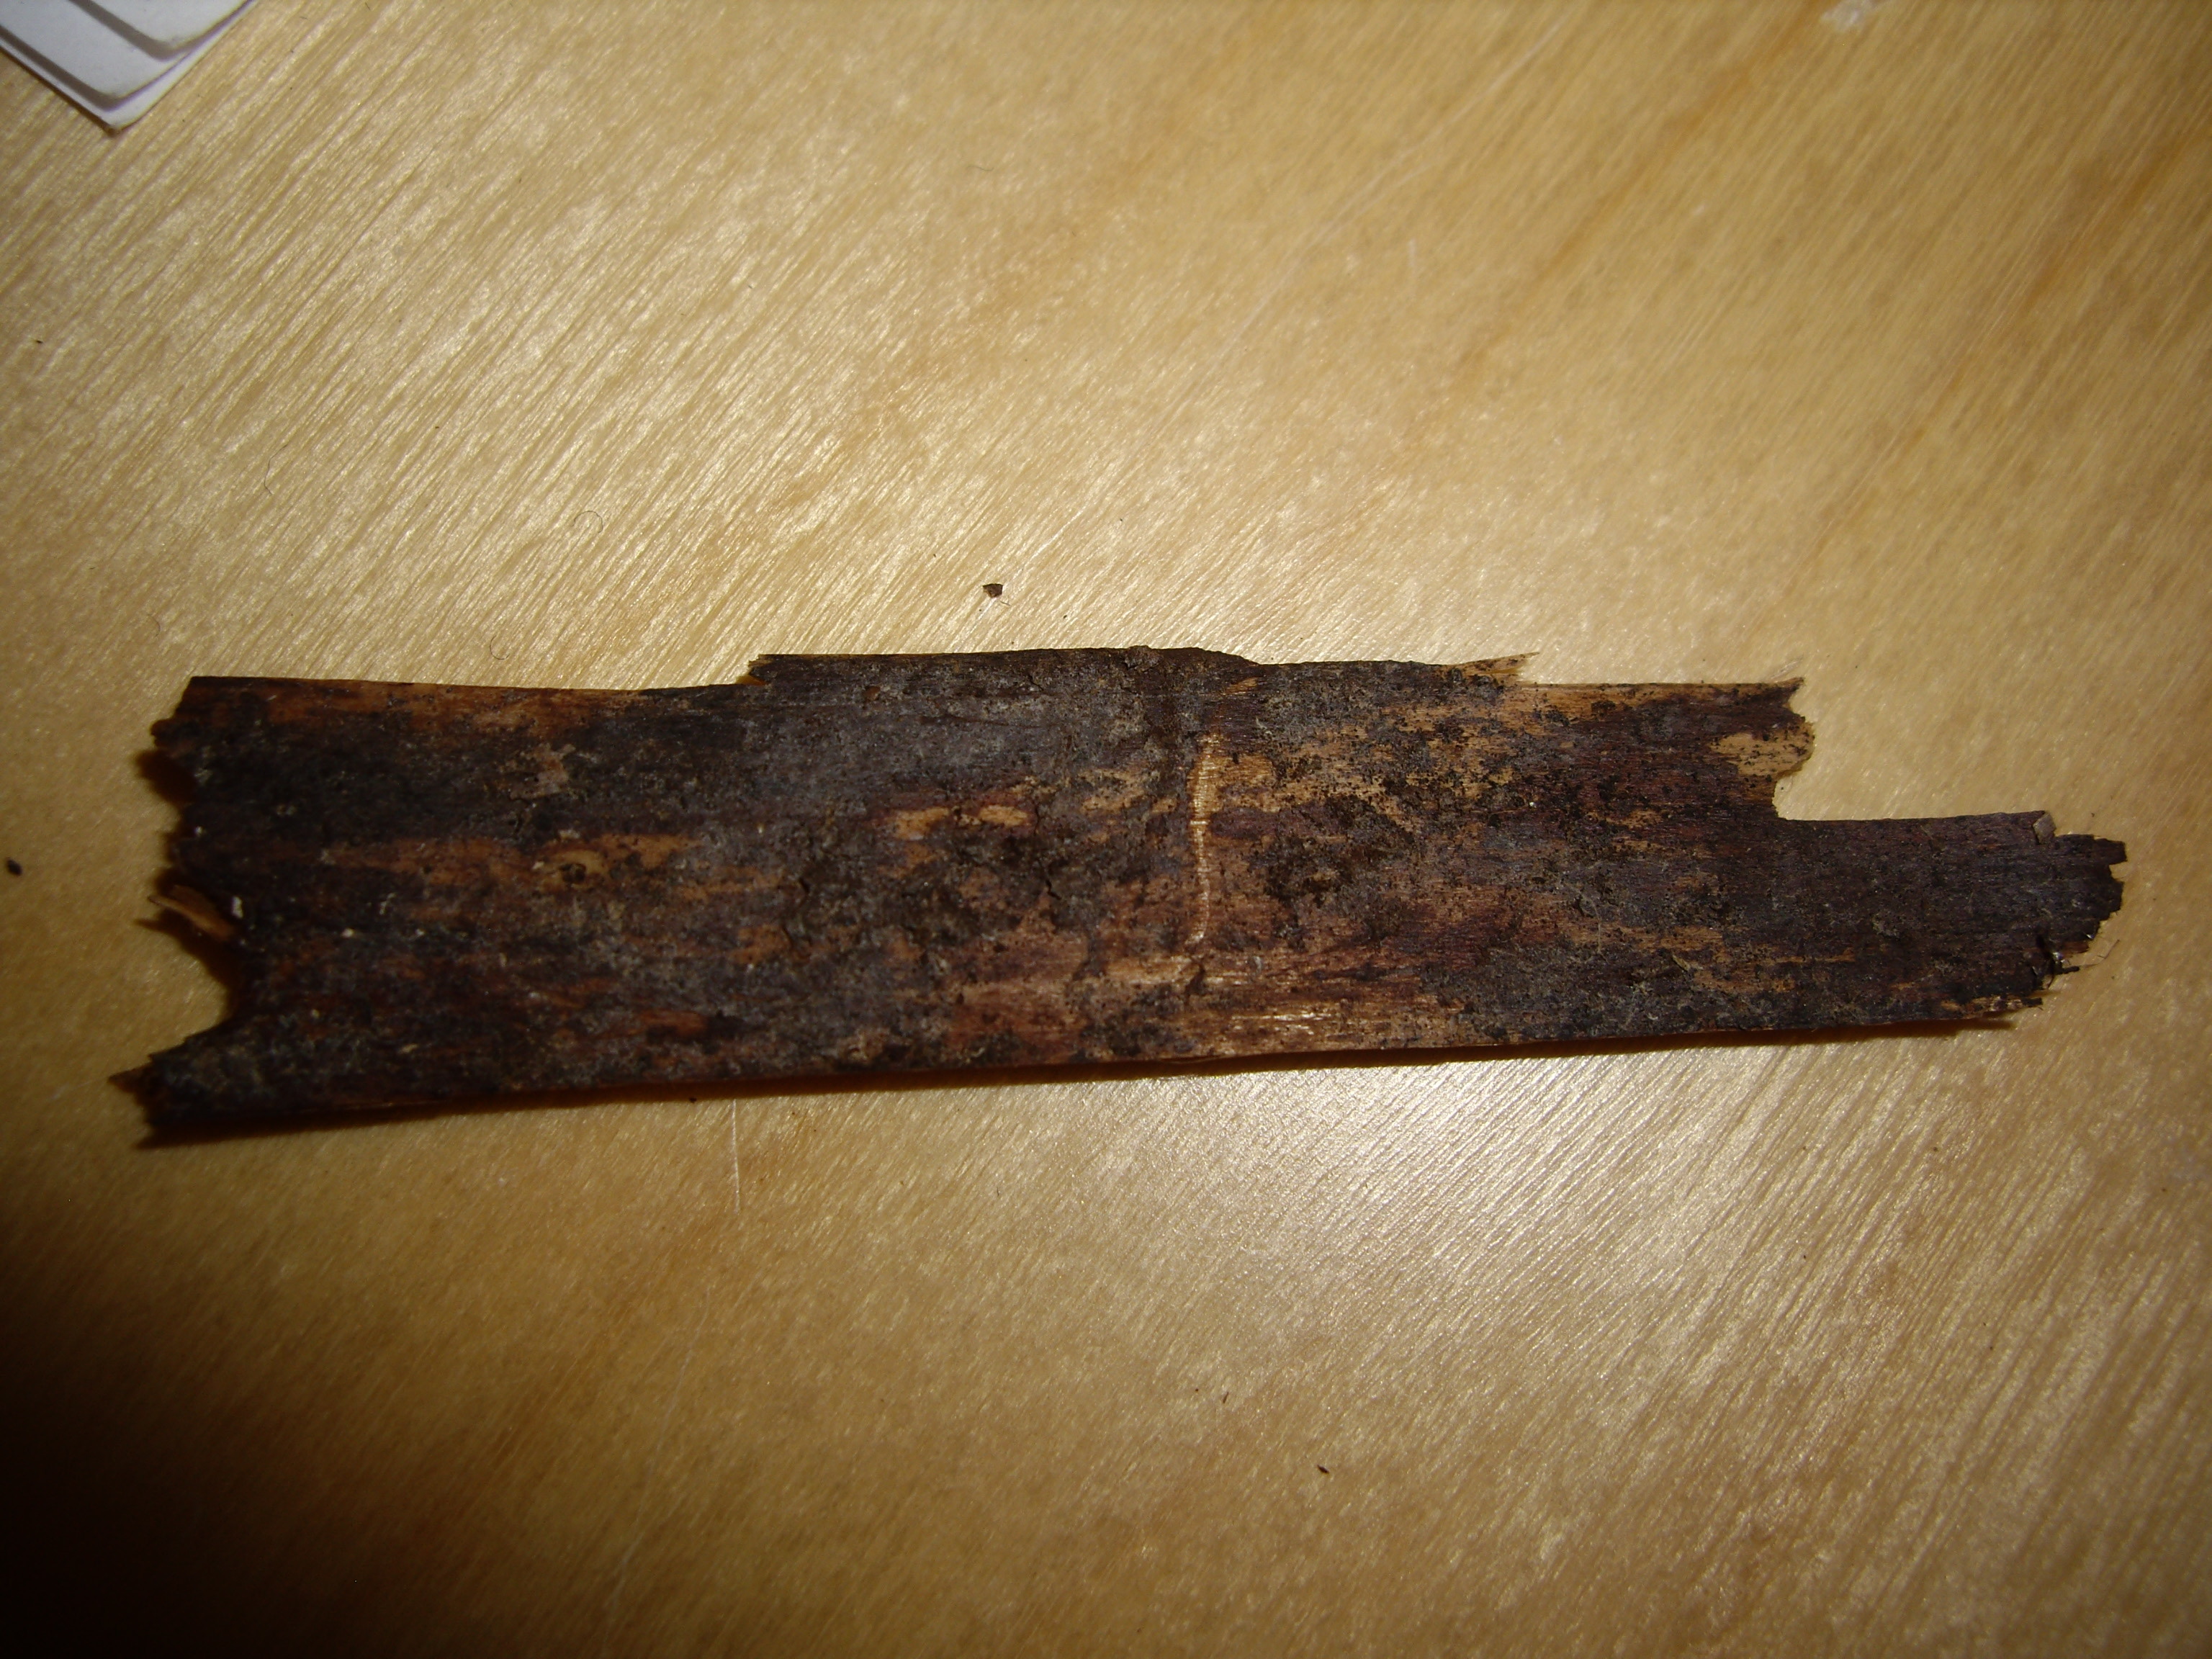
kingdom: Fungi
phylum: Basidiomycota
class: Agaricomycetes
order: Cantharellales
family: Hydnaceae
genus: Sistotrema
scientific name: Sistotrema
